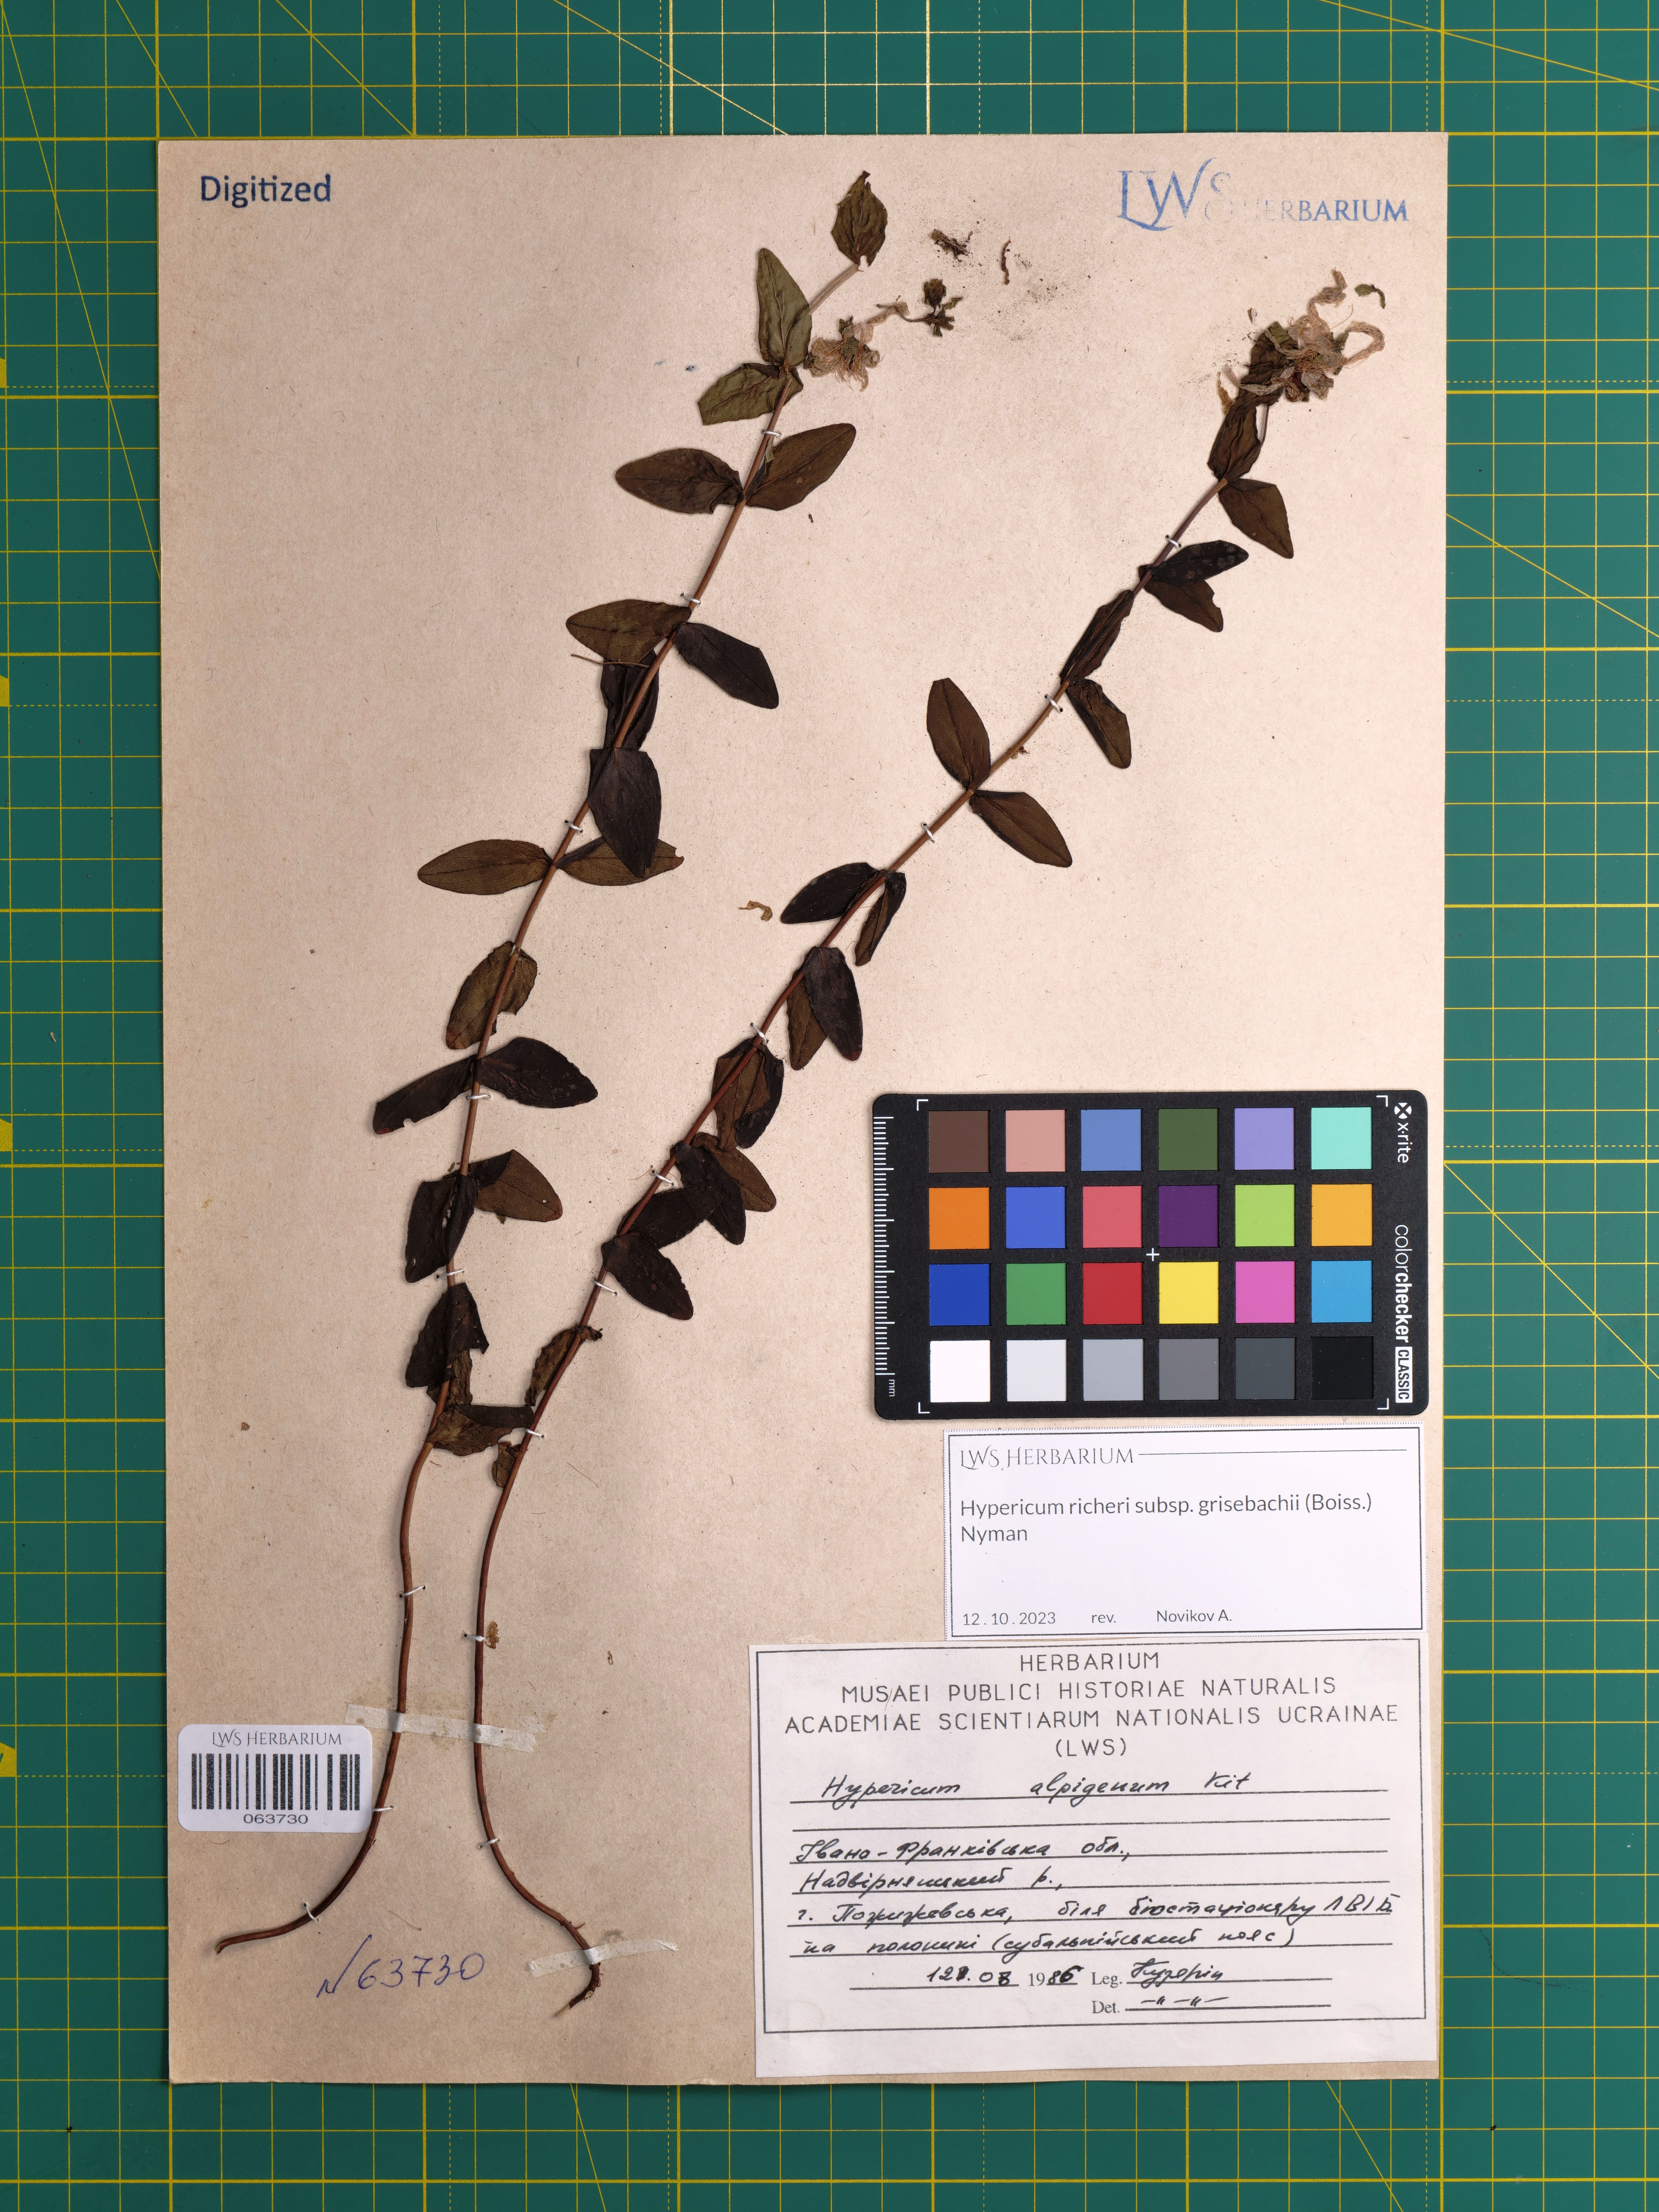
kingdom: Plantae
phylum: Tracheophyta
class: Magnoliopsida
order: Malpighiales
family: Hypericaceae
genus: Hypericum
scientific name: Hypericum richeri
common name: Alpine st john's-wort
